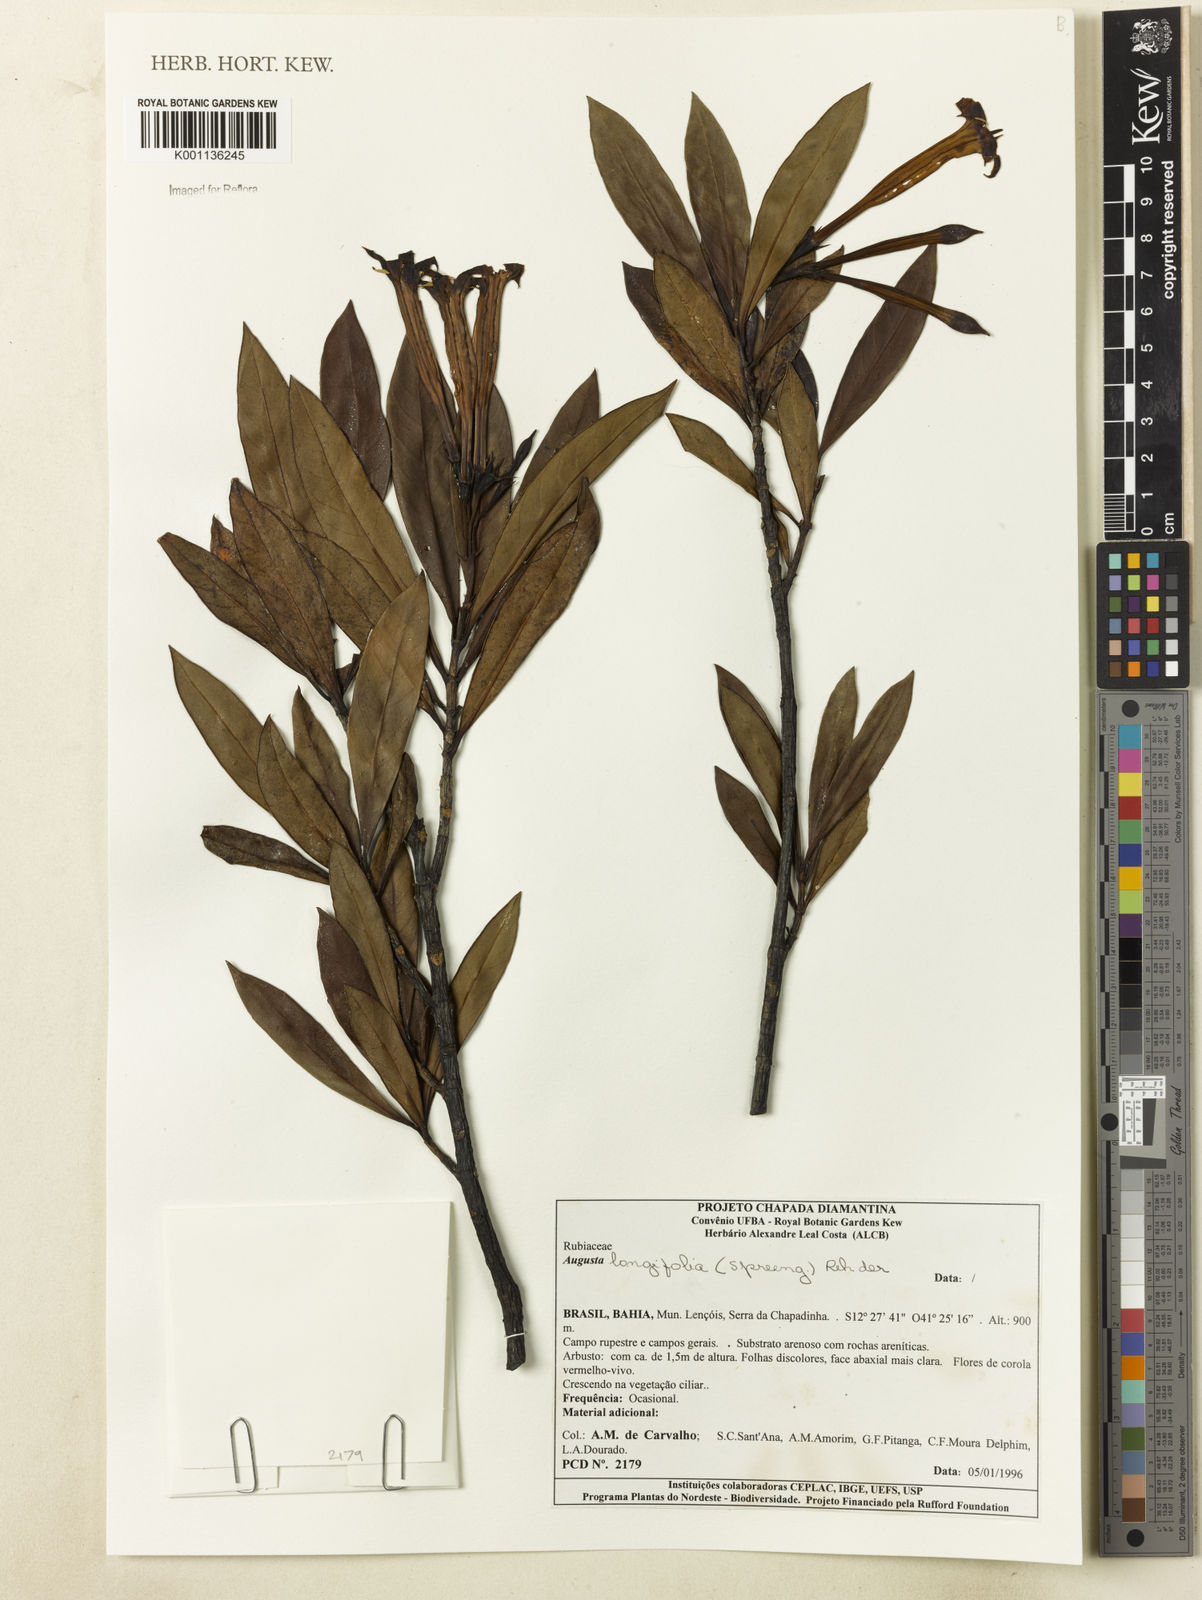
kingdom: Plantae
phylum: Tracheophyta
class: Magnoliopsida
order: Gentianales
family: Rubiaceae
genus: Augusta
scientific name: Augusta longifolia
